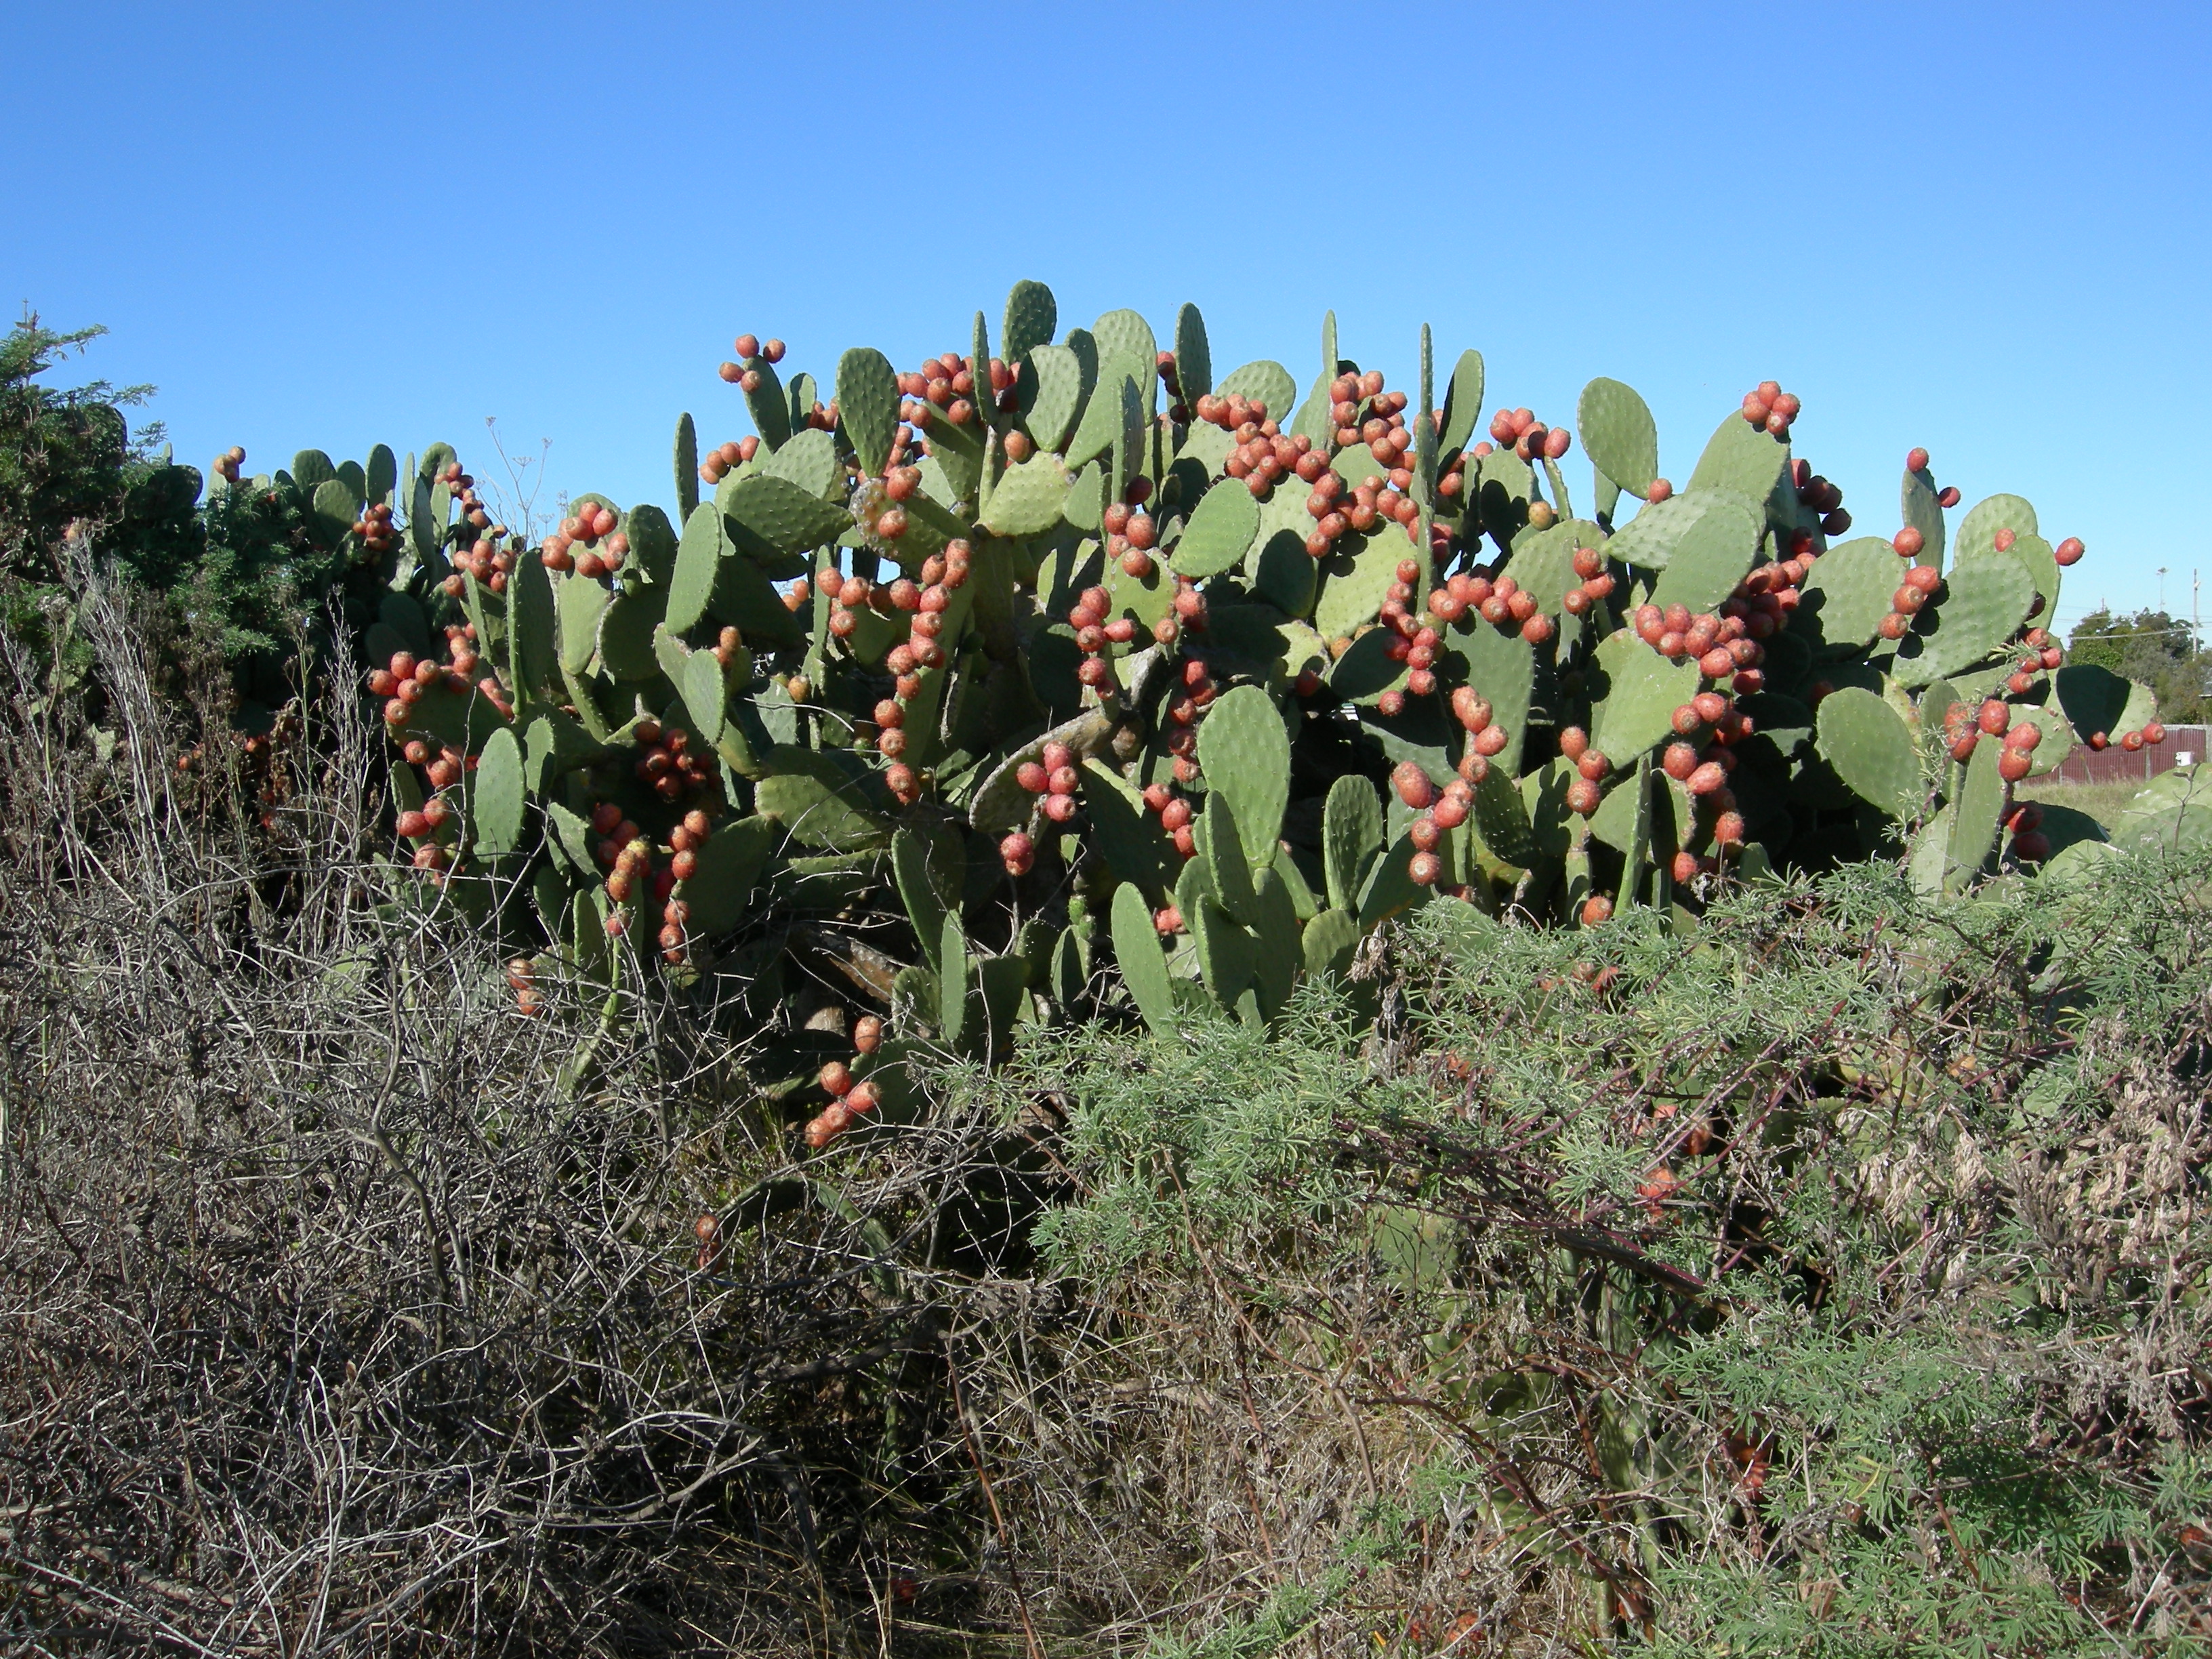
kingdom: Plantae
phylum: Tracheophyta
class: Magnoliopsida
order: Caryophyllales
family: Cactaceae
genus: Opuntia
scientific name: Opuntia monacantha
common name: Common pricklypear
